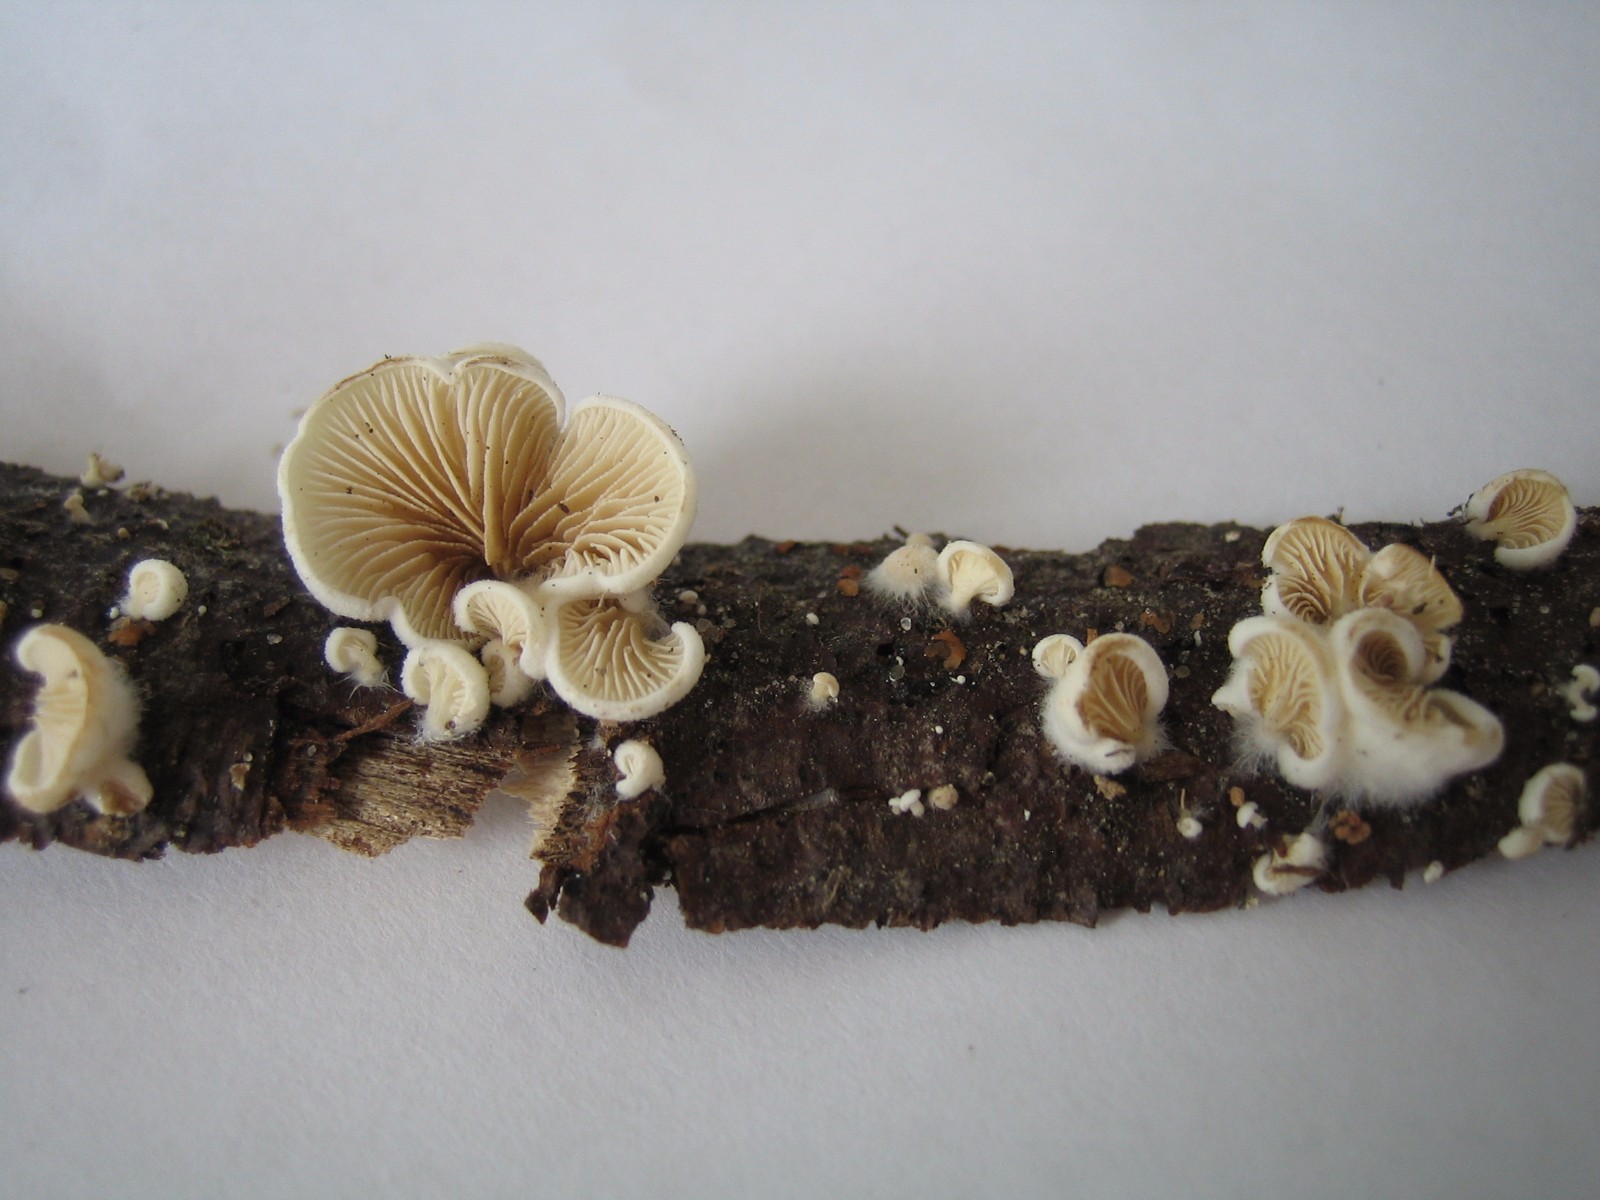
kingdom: Fungi
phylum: Basidiomycota
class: Agaricomycetes
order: Agaricales
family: Crepidotaceae
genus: Crepidotus
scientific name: Crepidotus
